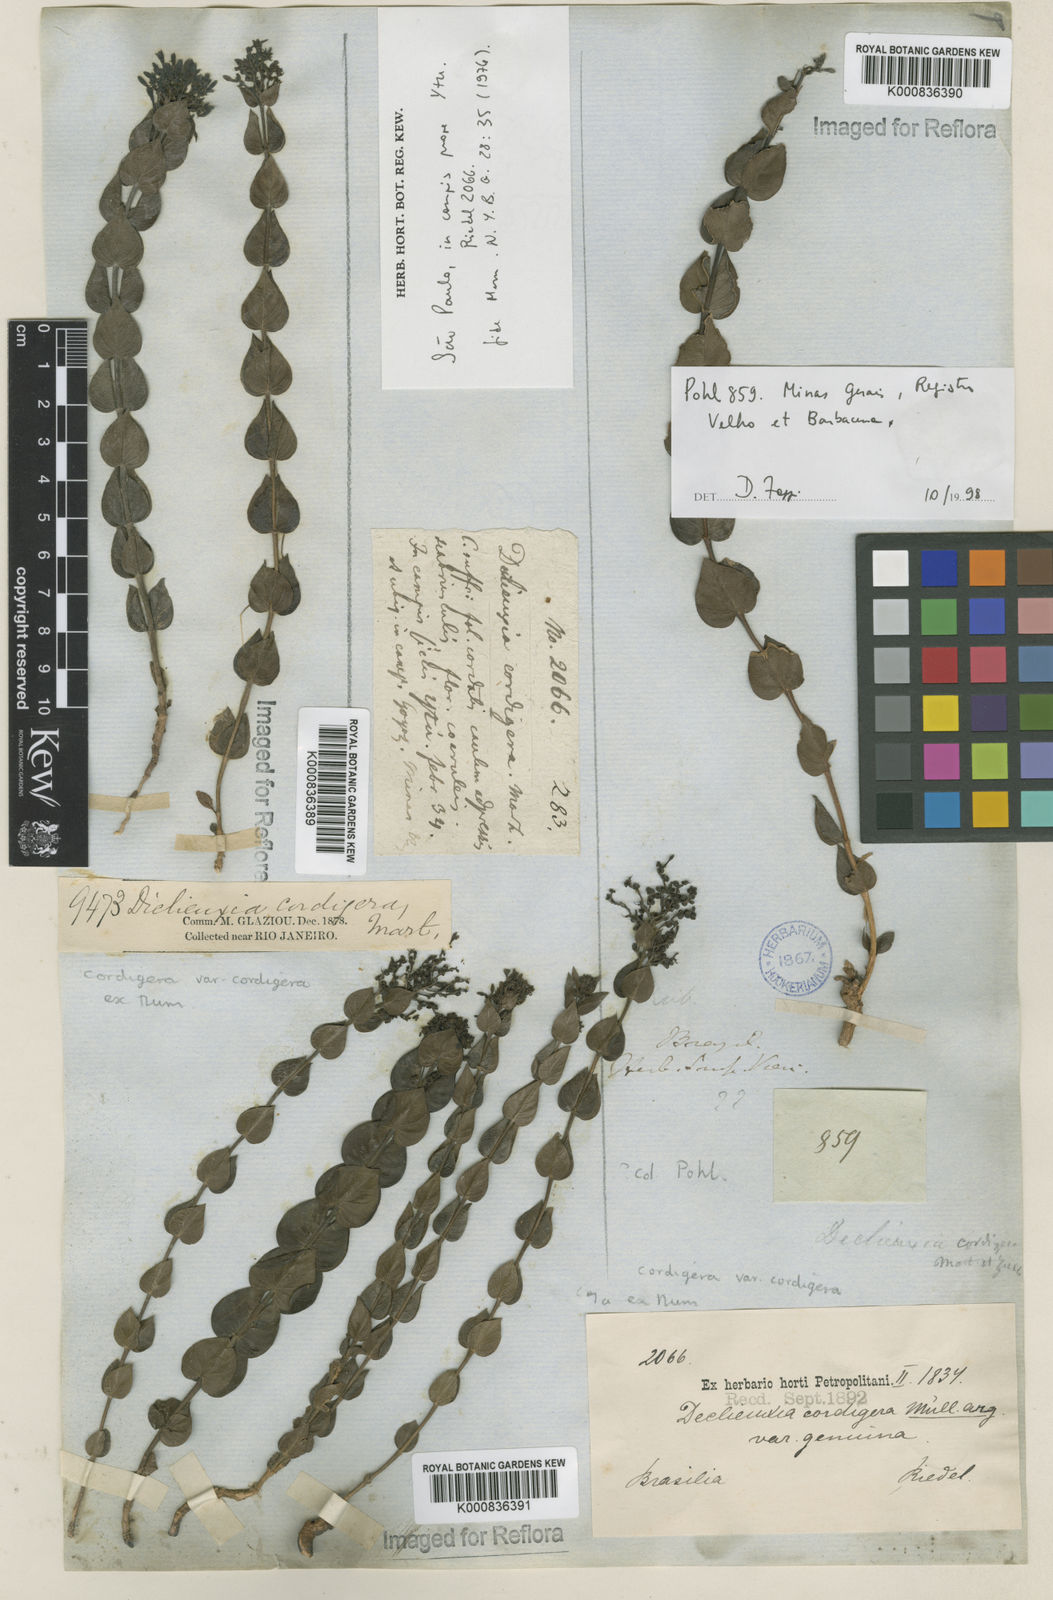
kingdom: Plantae
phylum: Tracheophyta
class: Magnoliopsida
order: Gentianales
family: Rubiaceae
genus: Declieuxia
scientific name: Declieuxia
